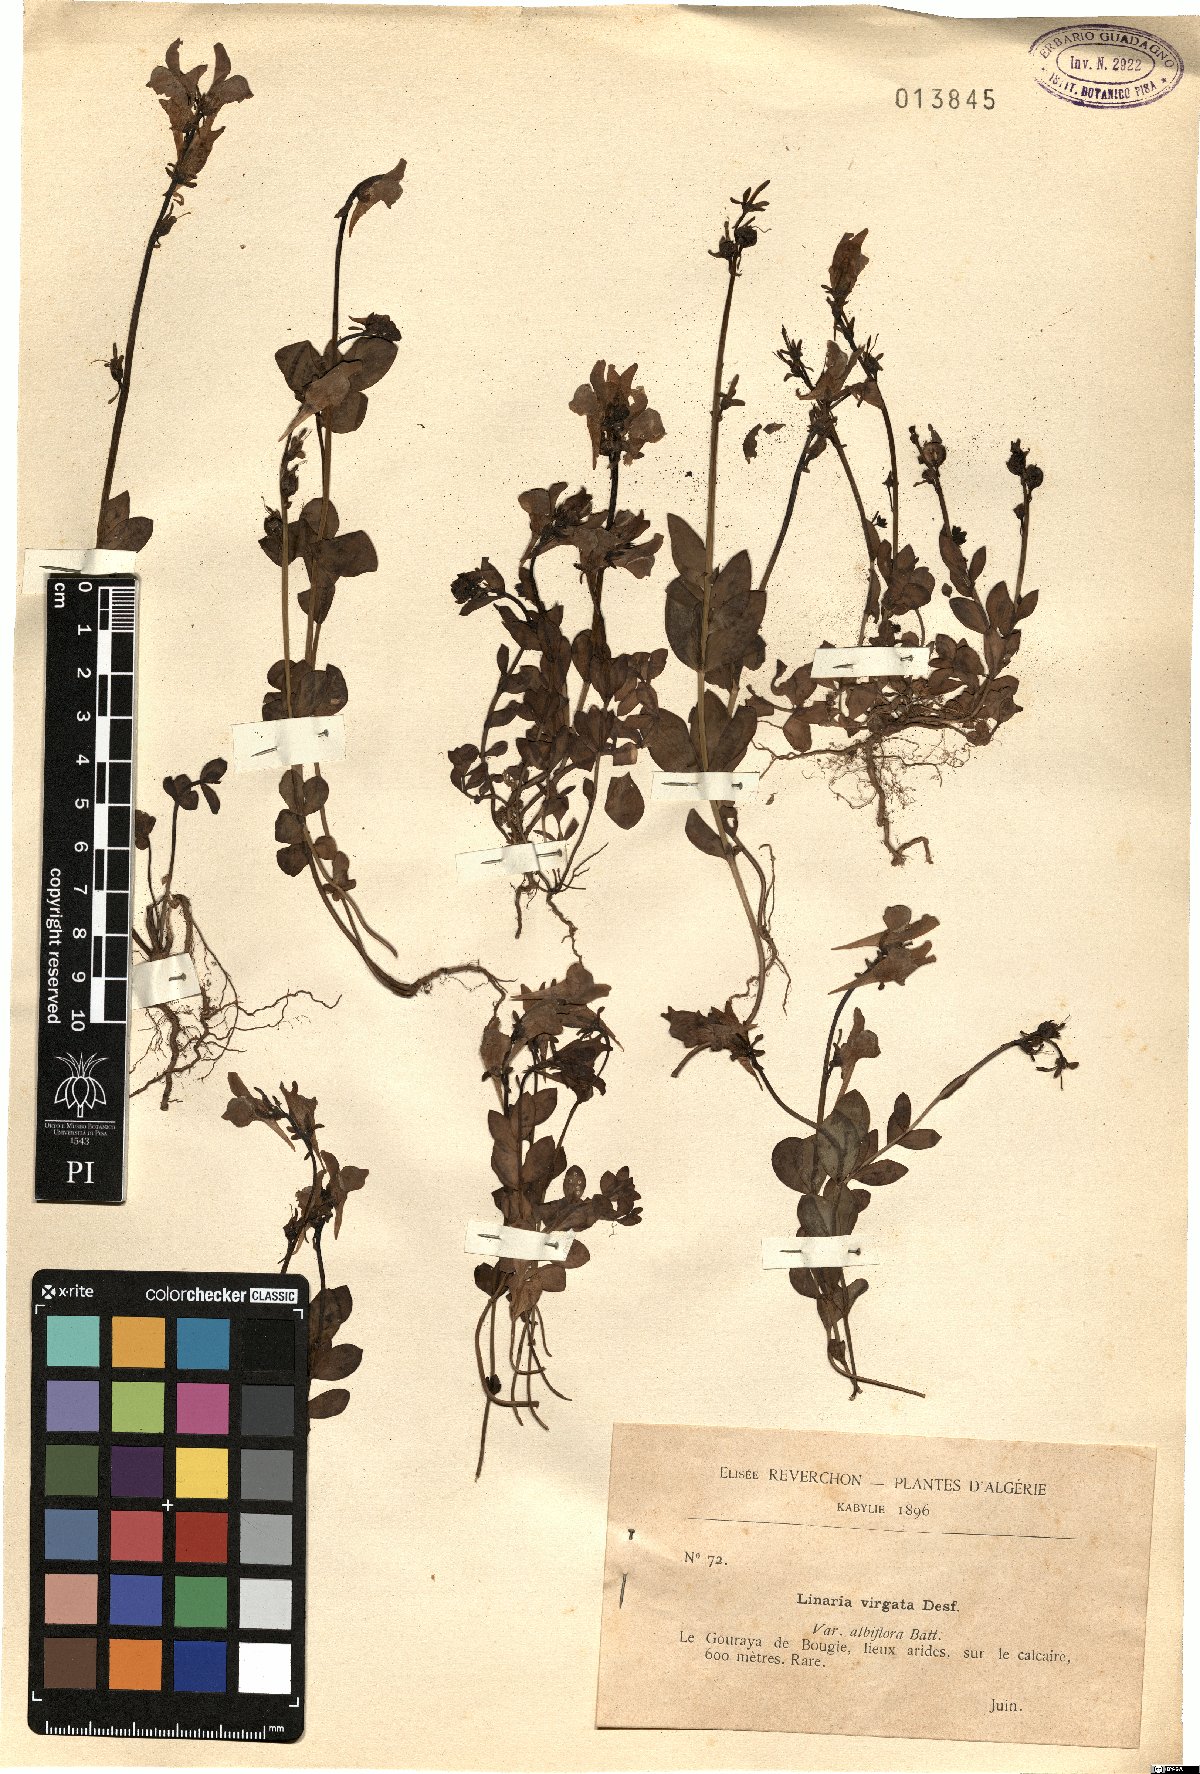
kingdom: Plantae
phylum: Tracheophyta
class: Magnoliopsida
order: Lamiales
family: Plantaginaceae
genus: Linaria
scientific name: Linaria virgata
